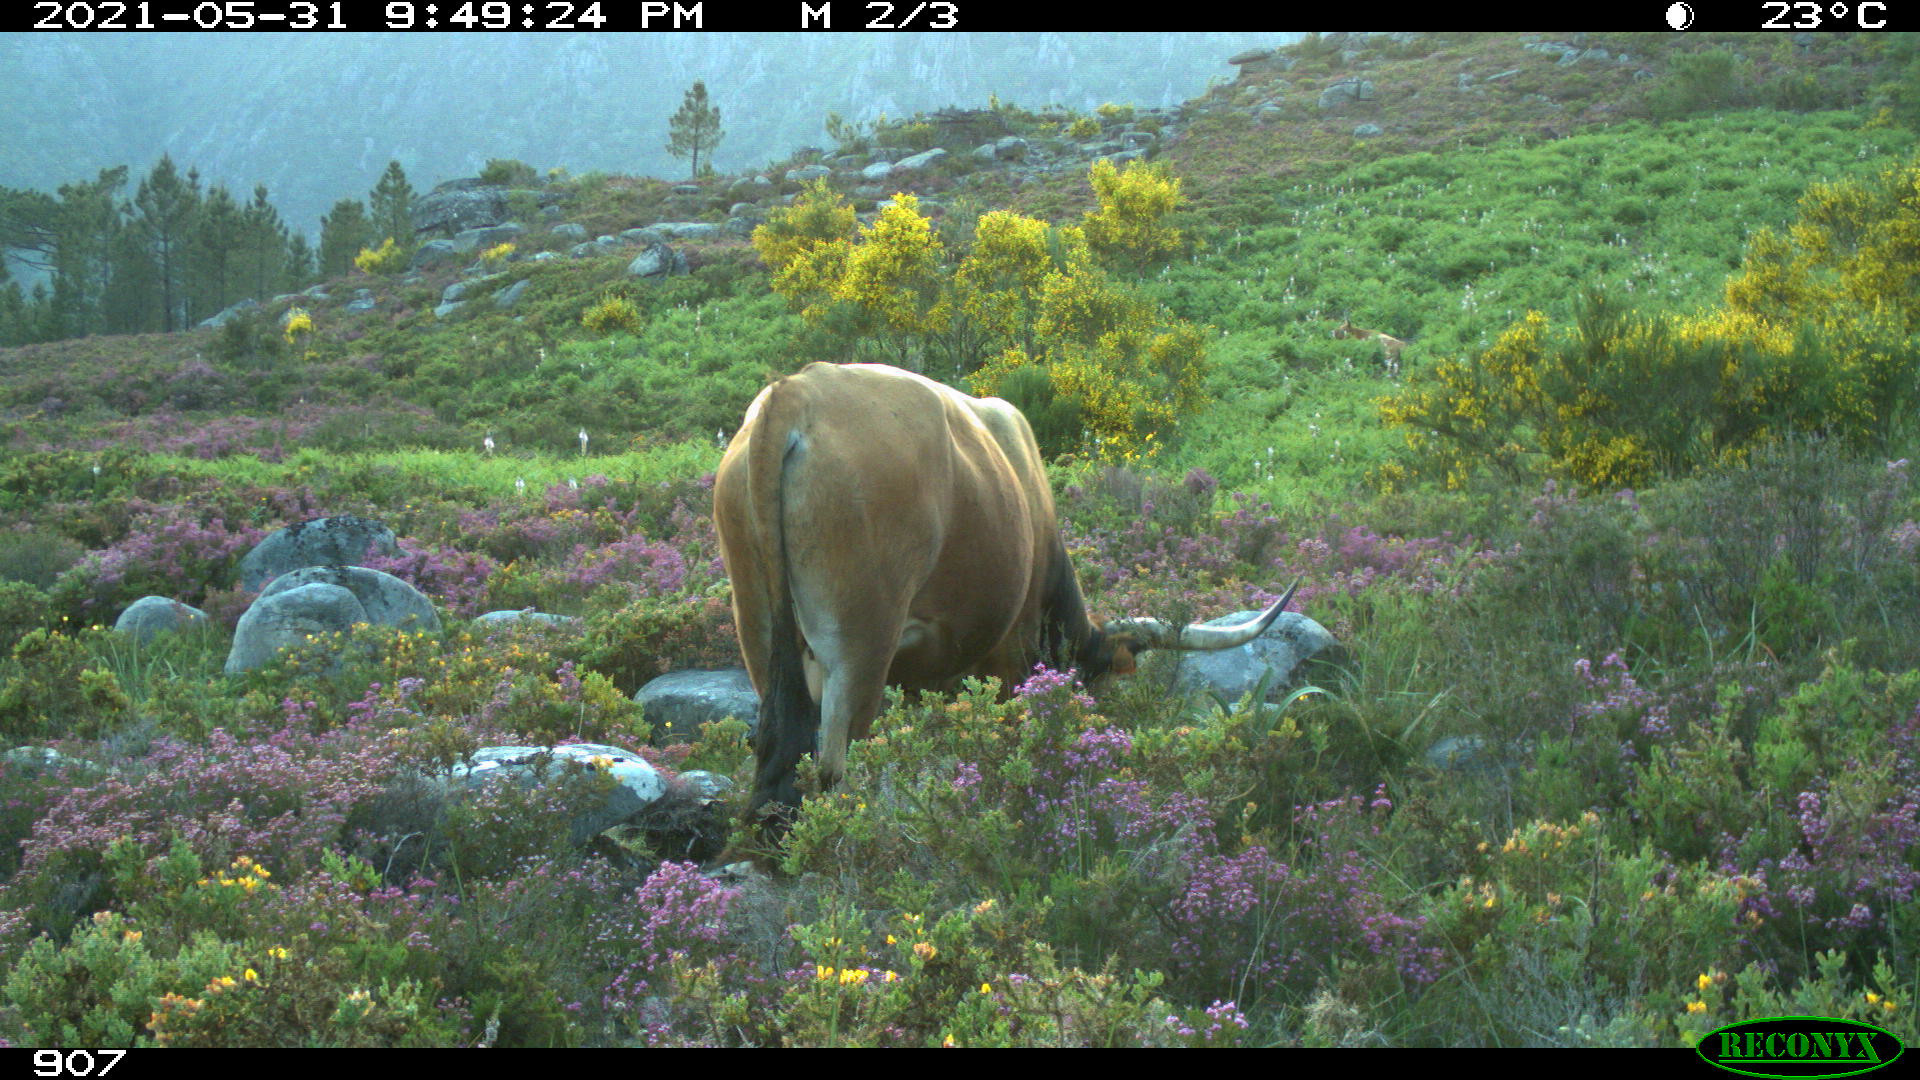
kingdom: Animalia
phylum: Chordata
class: Mammalia
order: Artiodactyla
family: Bovidae
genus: Bos
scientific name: Bos taurus
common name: Domesticated cattle
